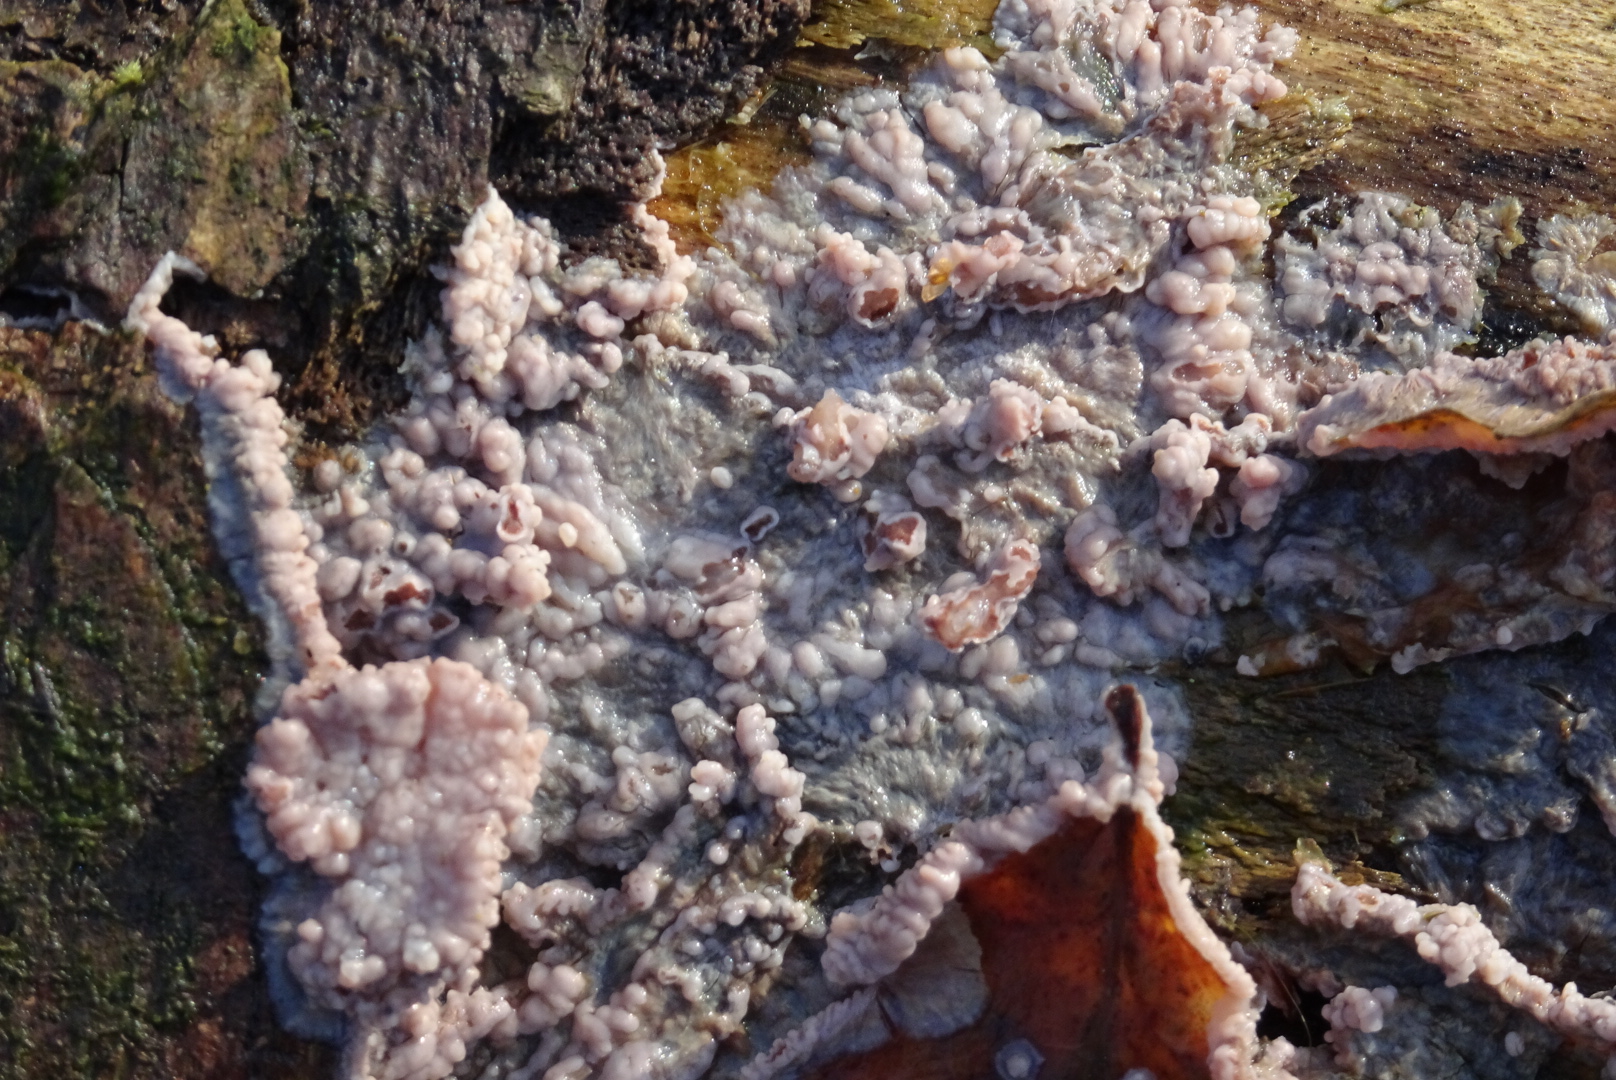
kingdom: Fungi
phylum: Basidiomycota
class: Agaricomycetes
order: Polyporales
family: Meruliaceae
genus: Phlebia
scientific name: Phlebia radiata
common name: stråle-åresvamp
